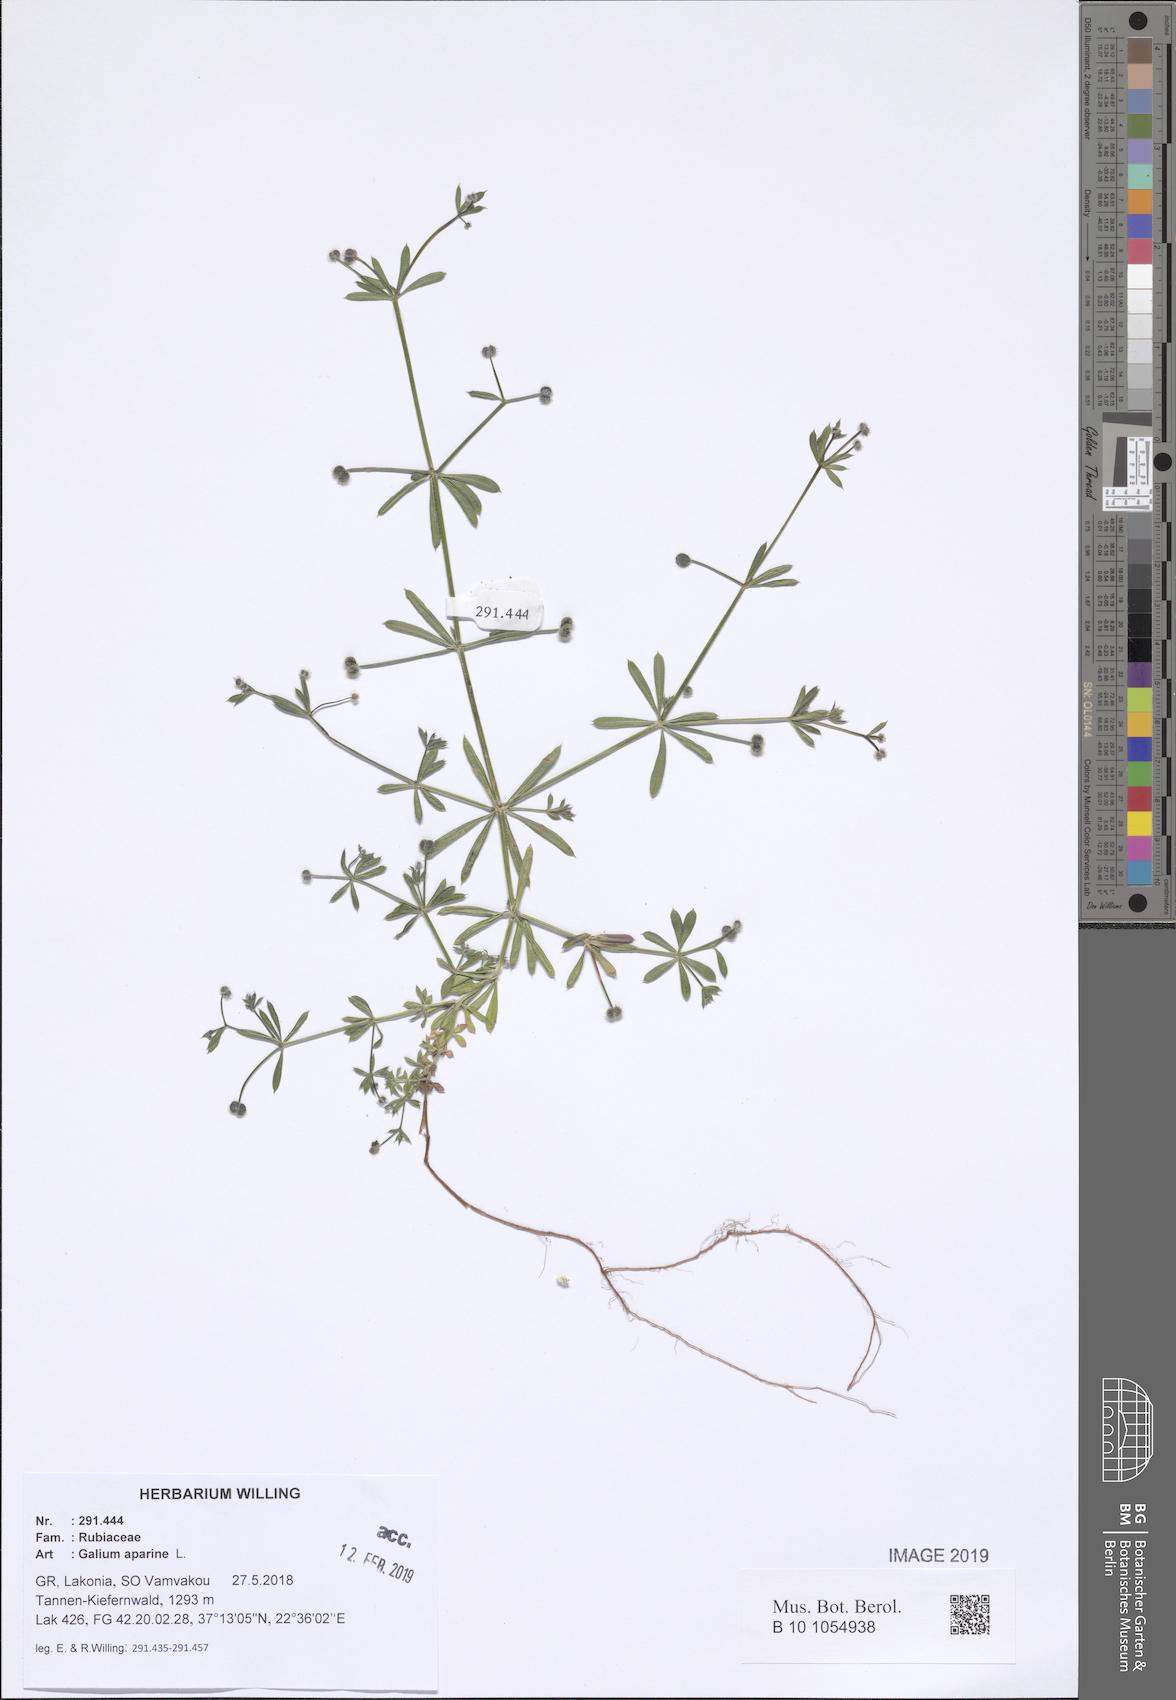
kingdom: Plantae
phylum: Tracheophyta
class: Magnoliopsida
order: Gentianales
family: Rubiaceae
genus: Galium
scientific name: Galium aparine
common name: Cleavers
